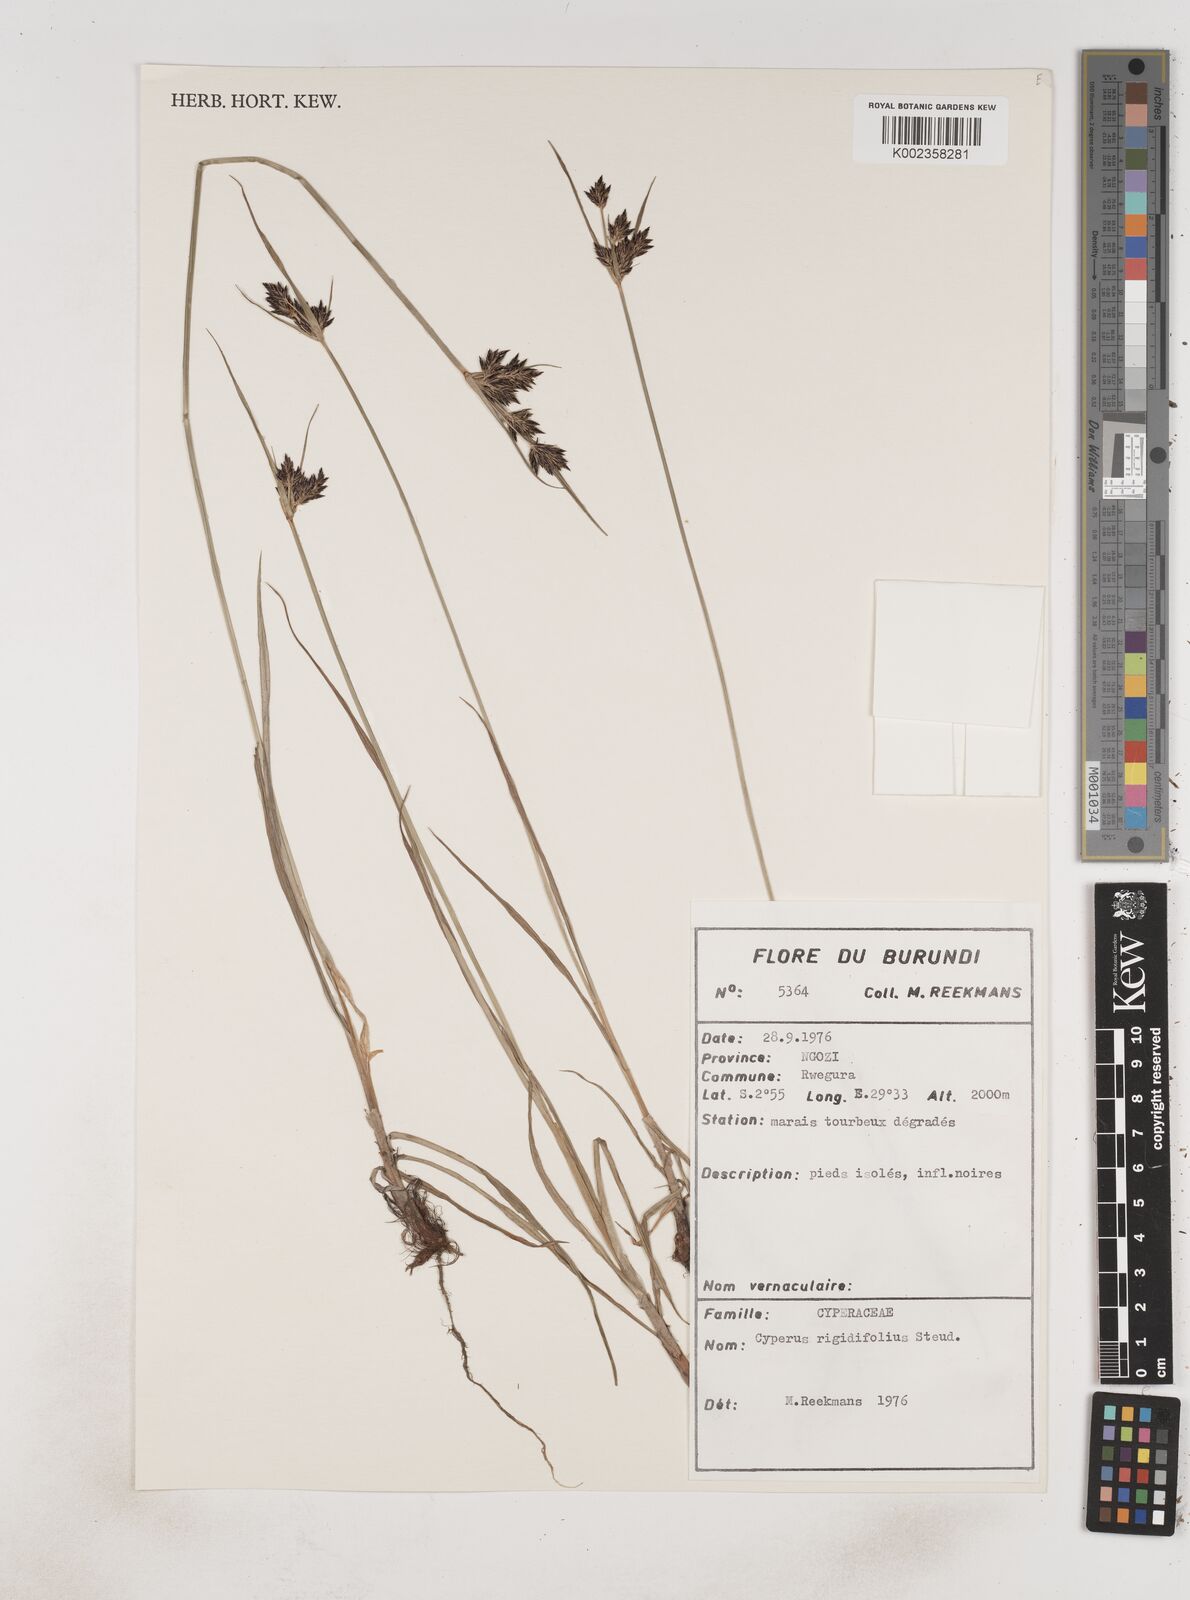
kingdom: Plantae
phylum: Tracheophyta
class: Liliopsida
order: Poales
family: Cyperaceae
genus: Cyperus
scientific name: Cyperus rigidifolius
